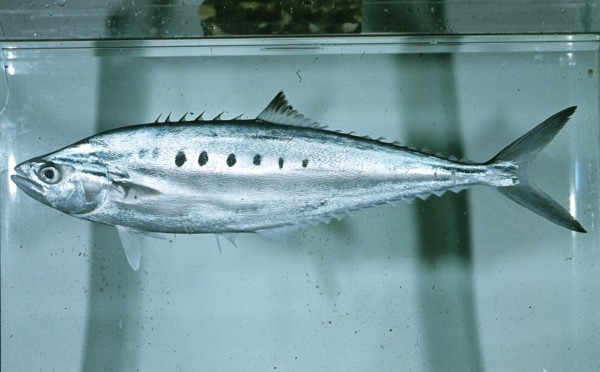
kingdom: Animalia
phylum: Chordata
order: Perciformes
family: Carangidae
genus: Scomberoides
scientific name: Scomberoides tol
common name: Needlescaled queenfish
